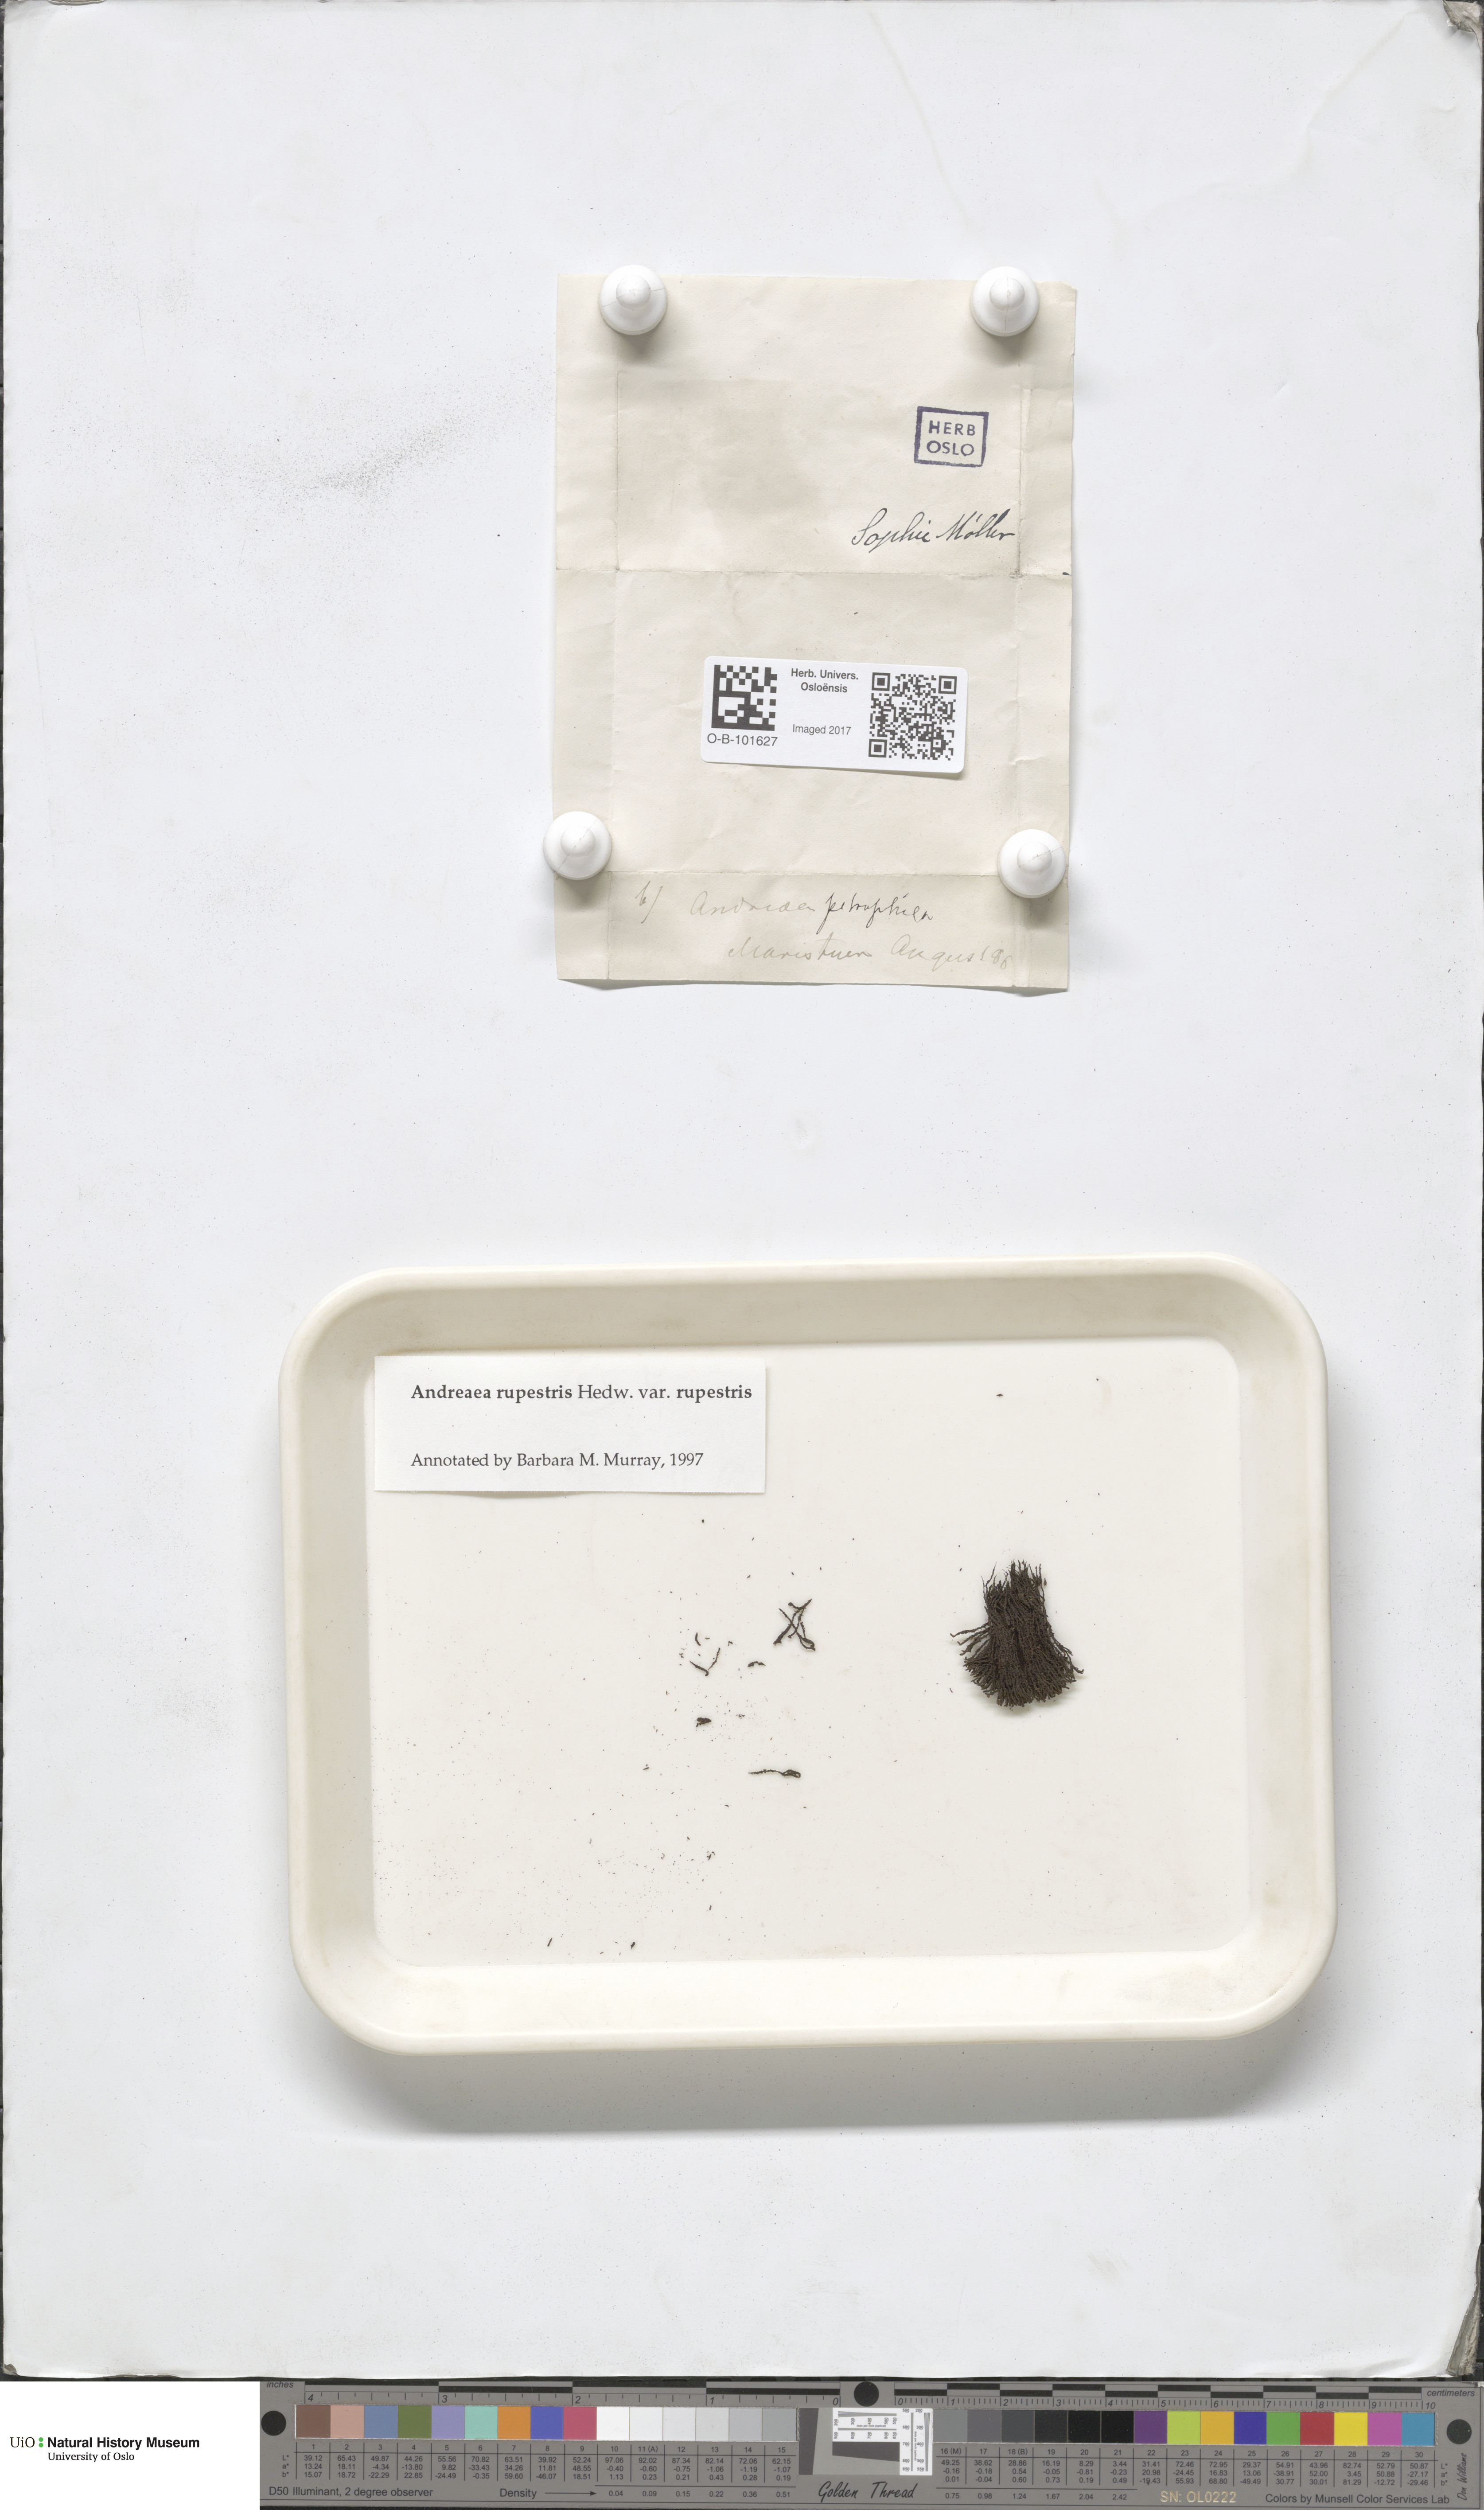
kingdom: Plantae
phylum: Bryophyta
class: Andreaeopsida
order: Andreaeales
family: Andreaeaceae
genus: Andreaea
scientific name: Andreaea rupestris
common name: Black rock moss
